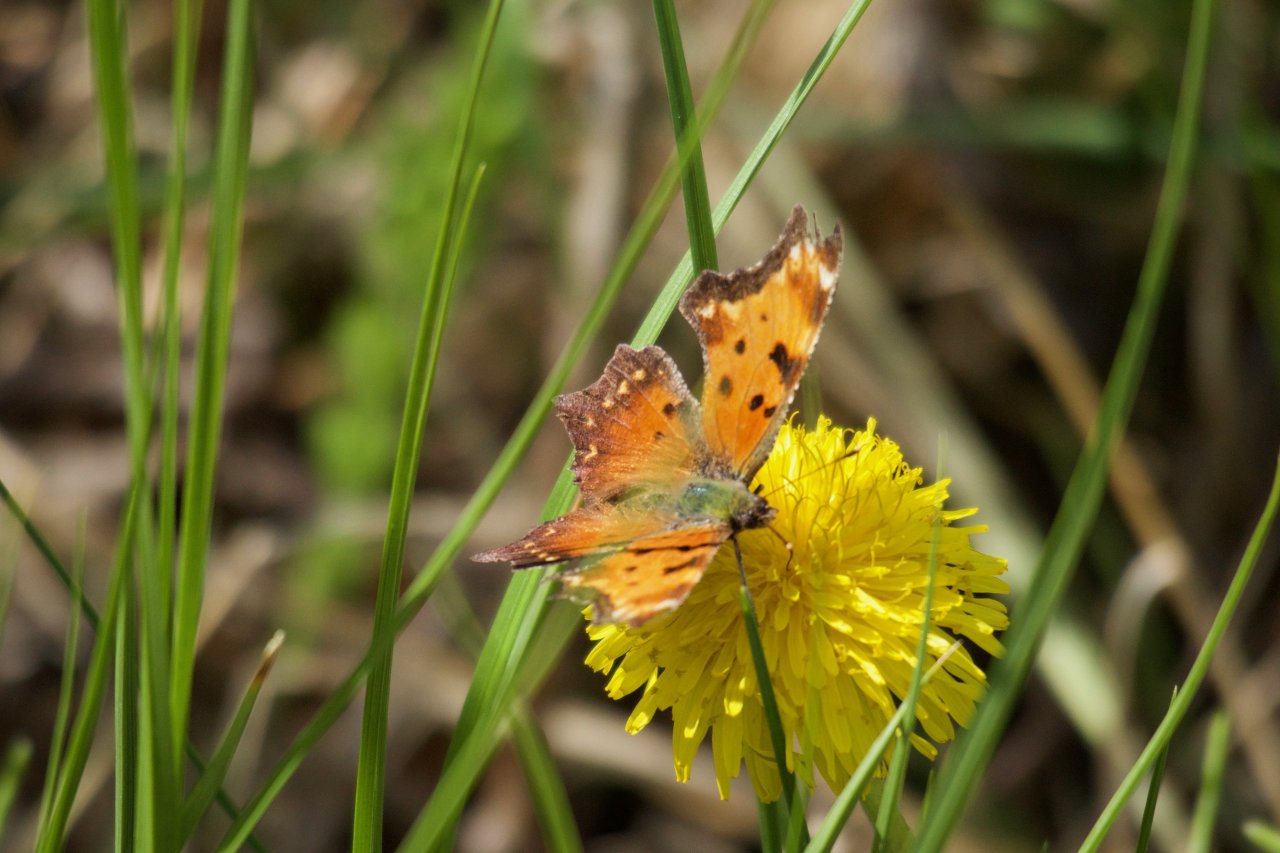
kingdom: Animalia
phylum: Arthropoda
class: Insecta
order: Lepidoptera
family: Nymphalidae
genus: Polygonia
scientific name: Polygonia progne
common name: Gray Comma
